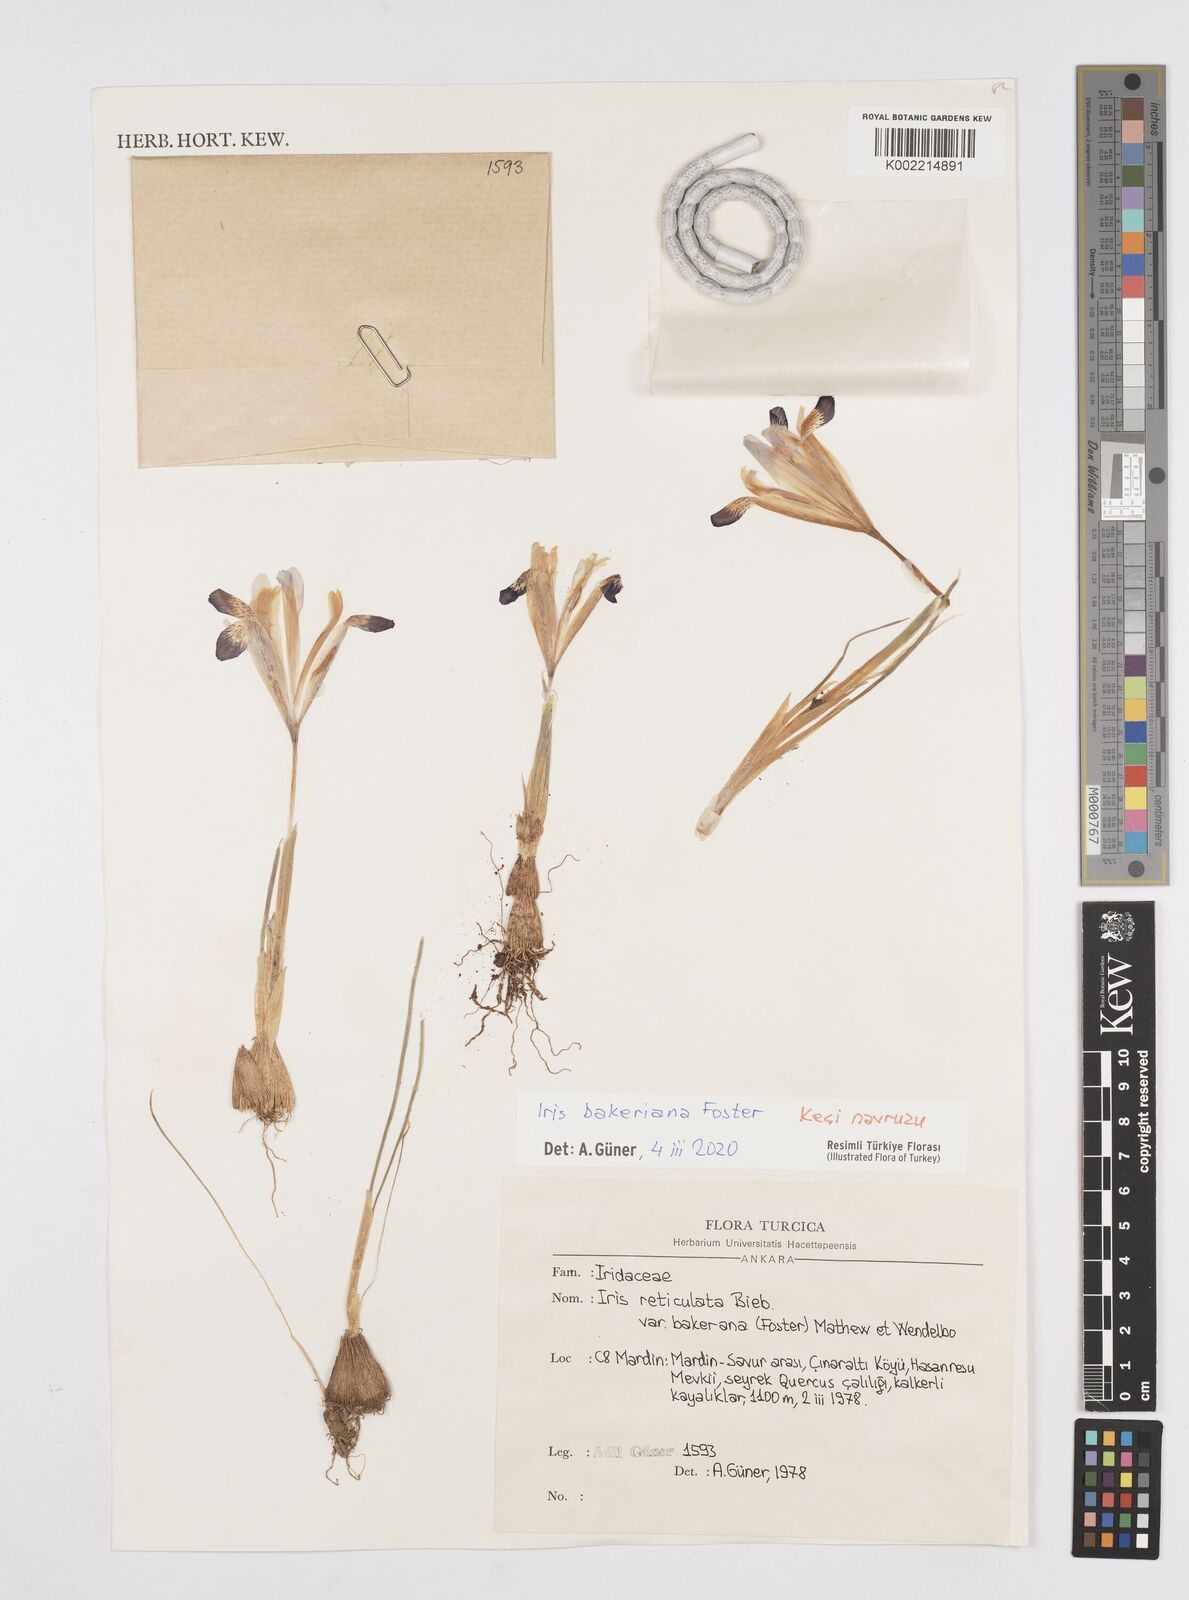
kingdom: Plantae
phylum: Tracheophyta
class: Liliopsida
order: Asparagales
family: Iridaceae
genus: Iris
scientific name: Iris reticulata
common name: Netted iris
